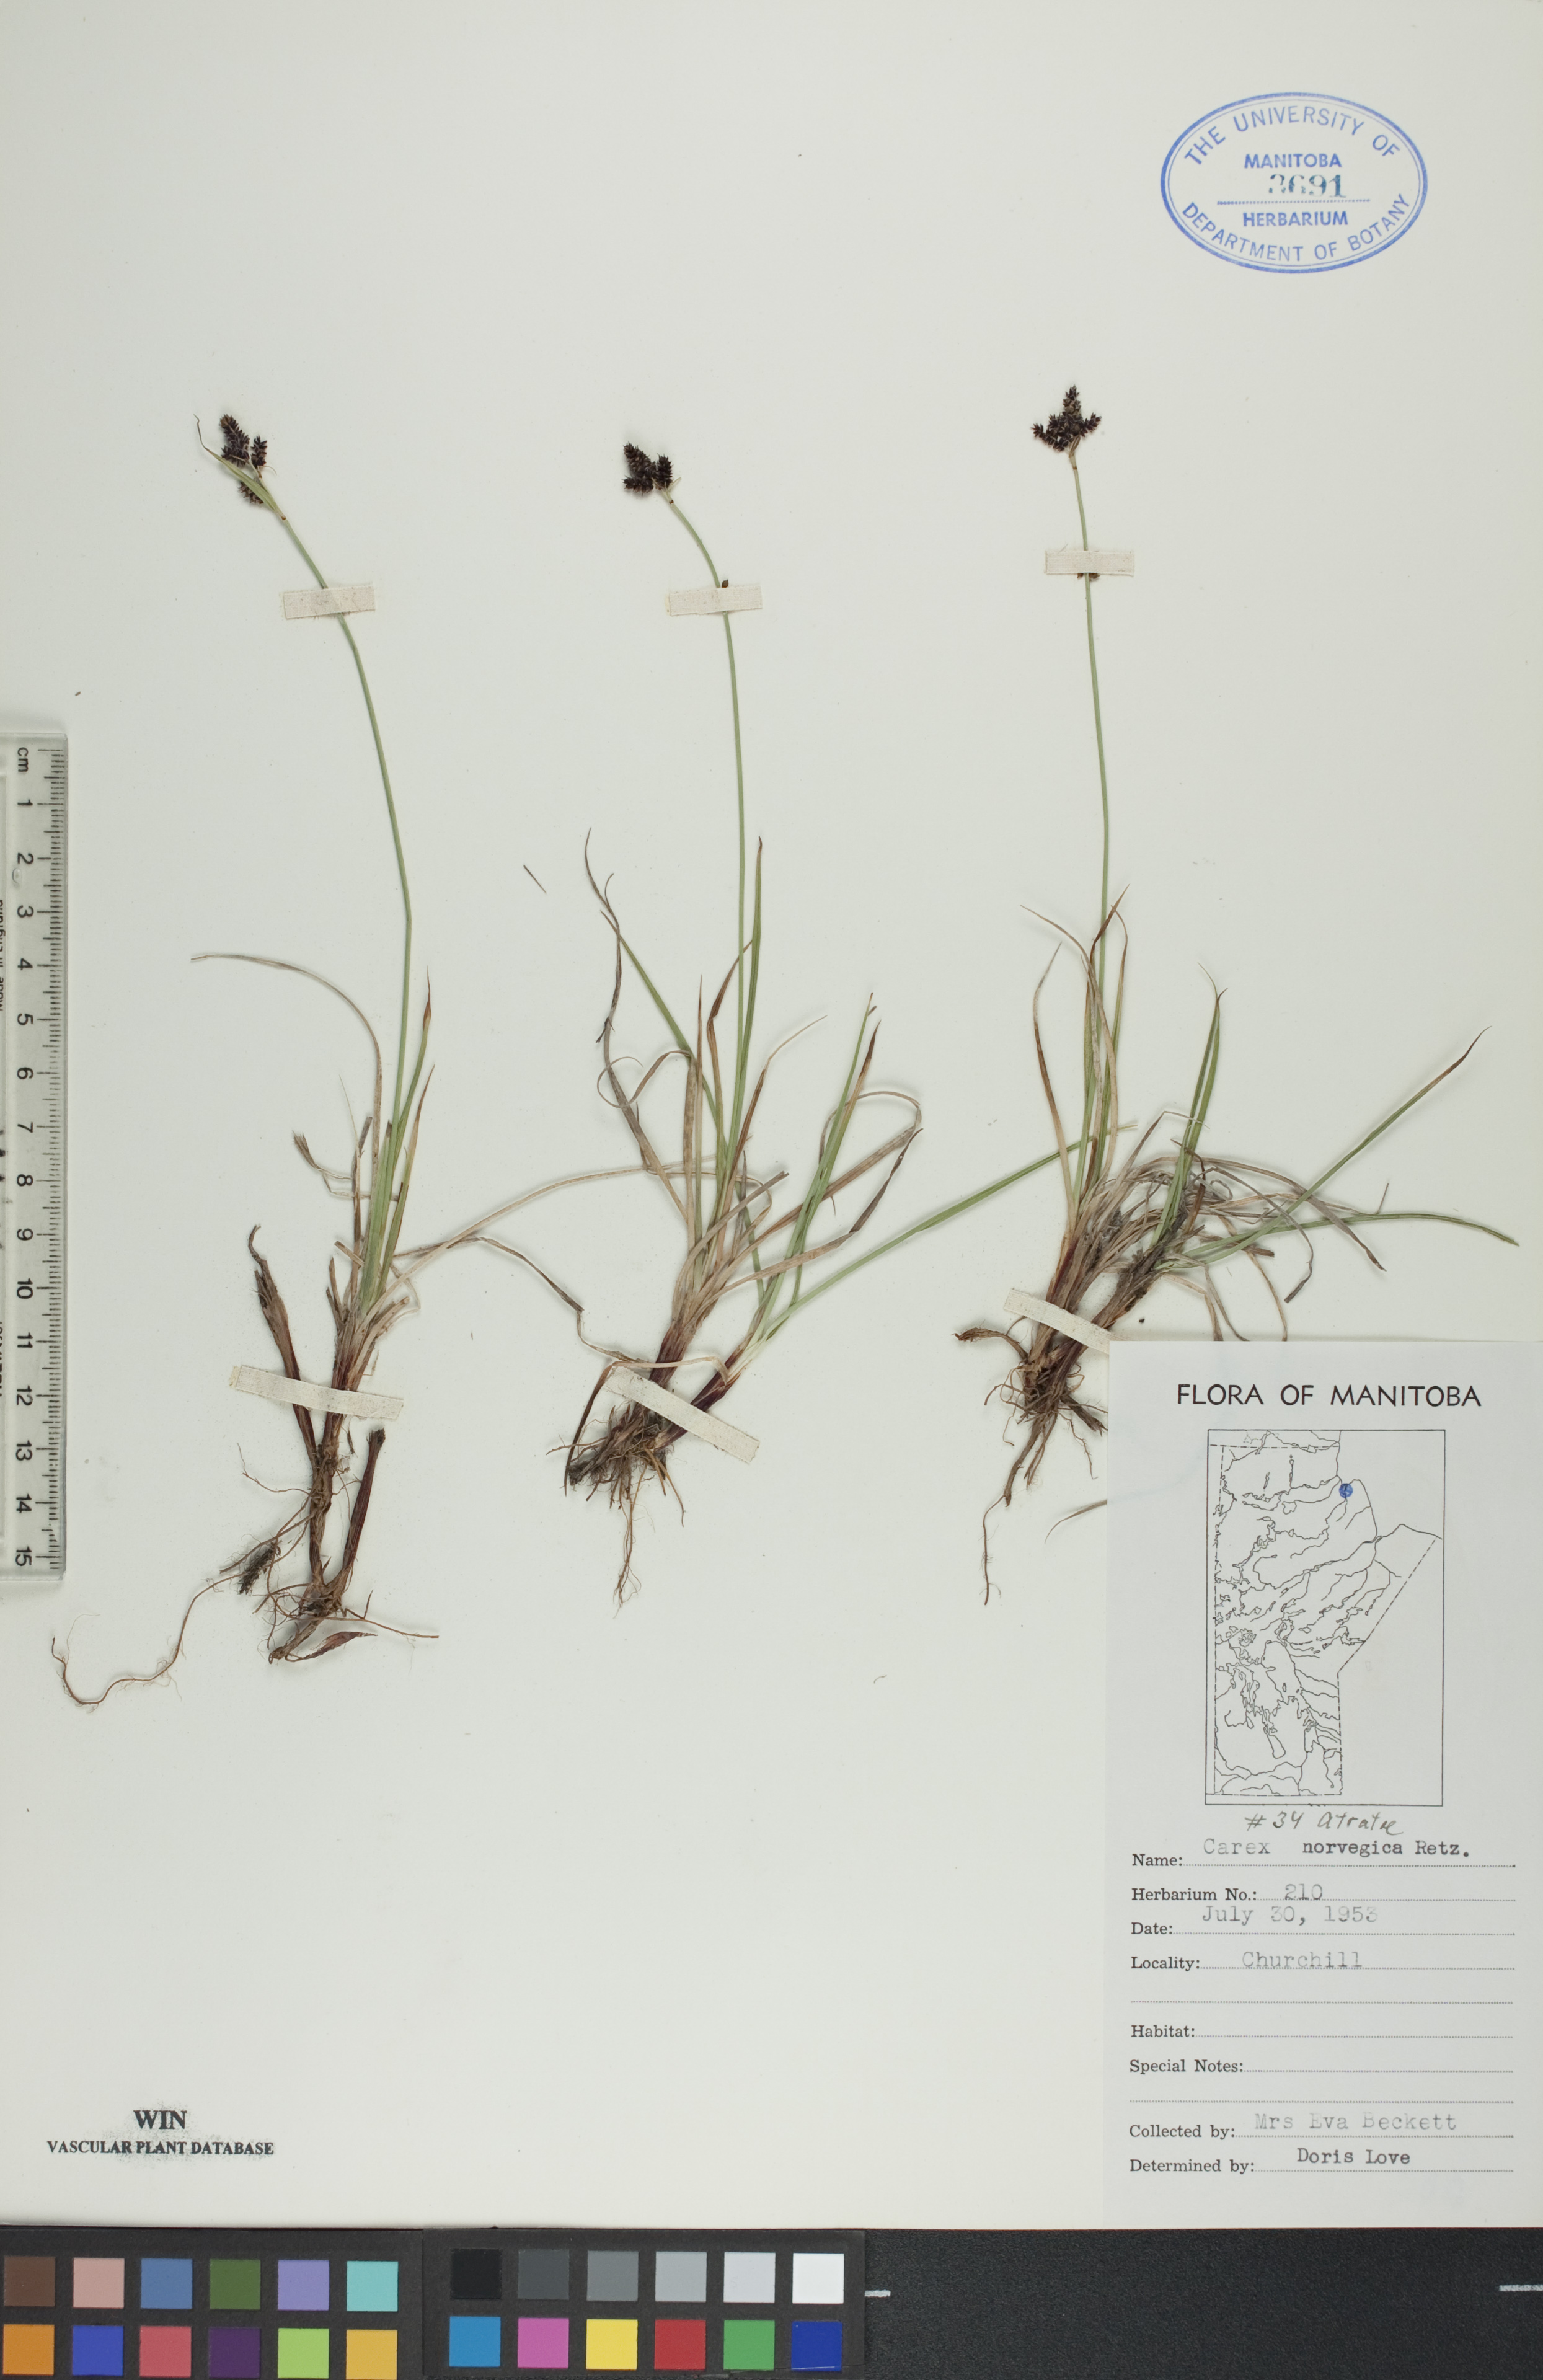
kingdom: Plantae
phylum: Tracheophyta
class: Liliopsida
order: Poales
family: Cyperaceae
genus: Carex
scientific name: Carex norvegica
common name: Close-headed alpine-sedge
